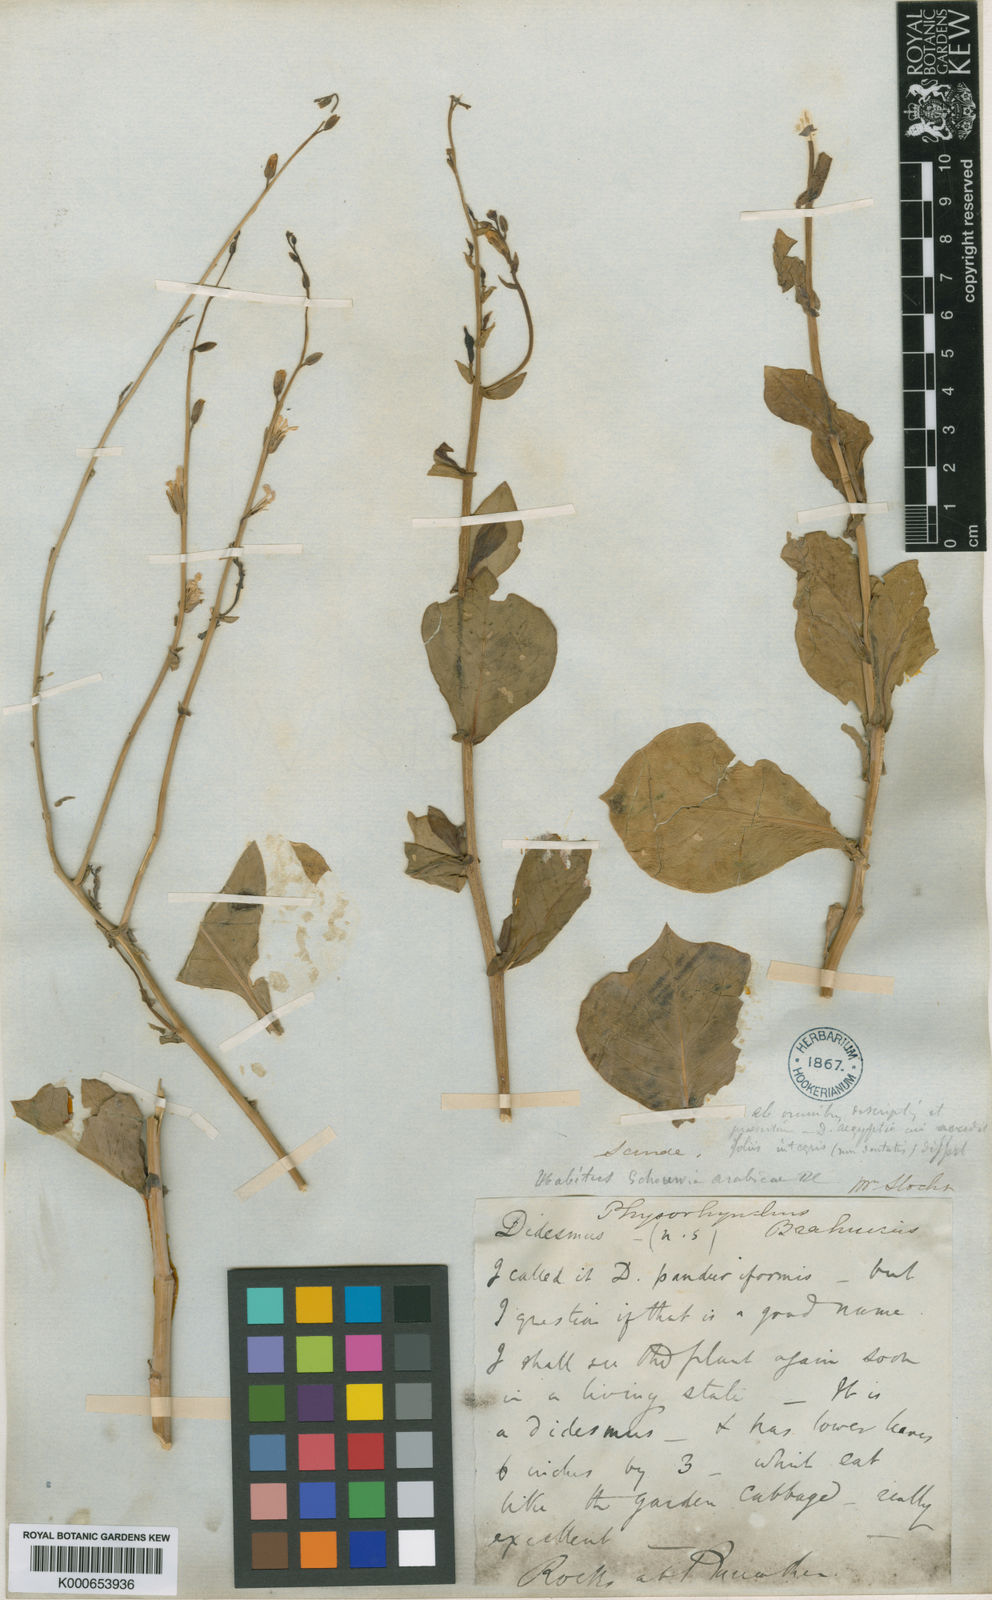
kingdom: Plantae
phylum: Tracheophyta
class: Magnoliopsida
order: Brassicales
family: Brassicaceae
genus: Physorhynchus
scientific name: Physorhynchus brahuicus
